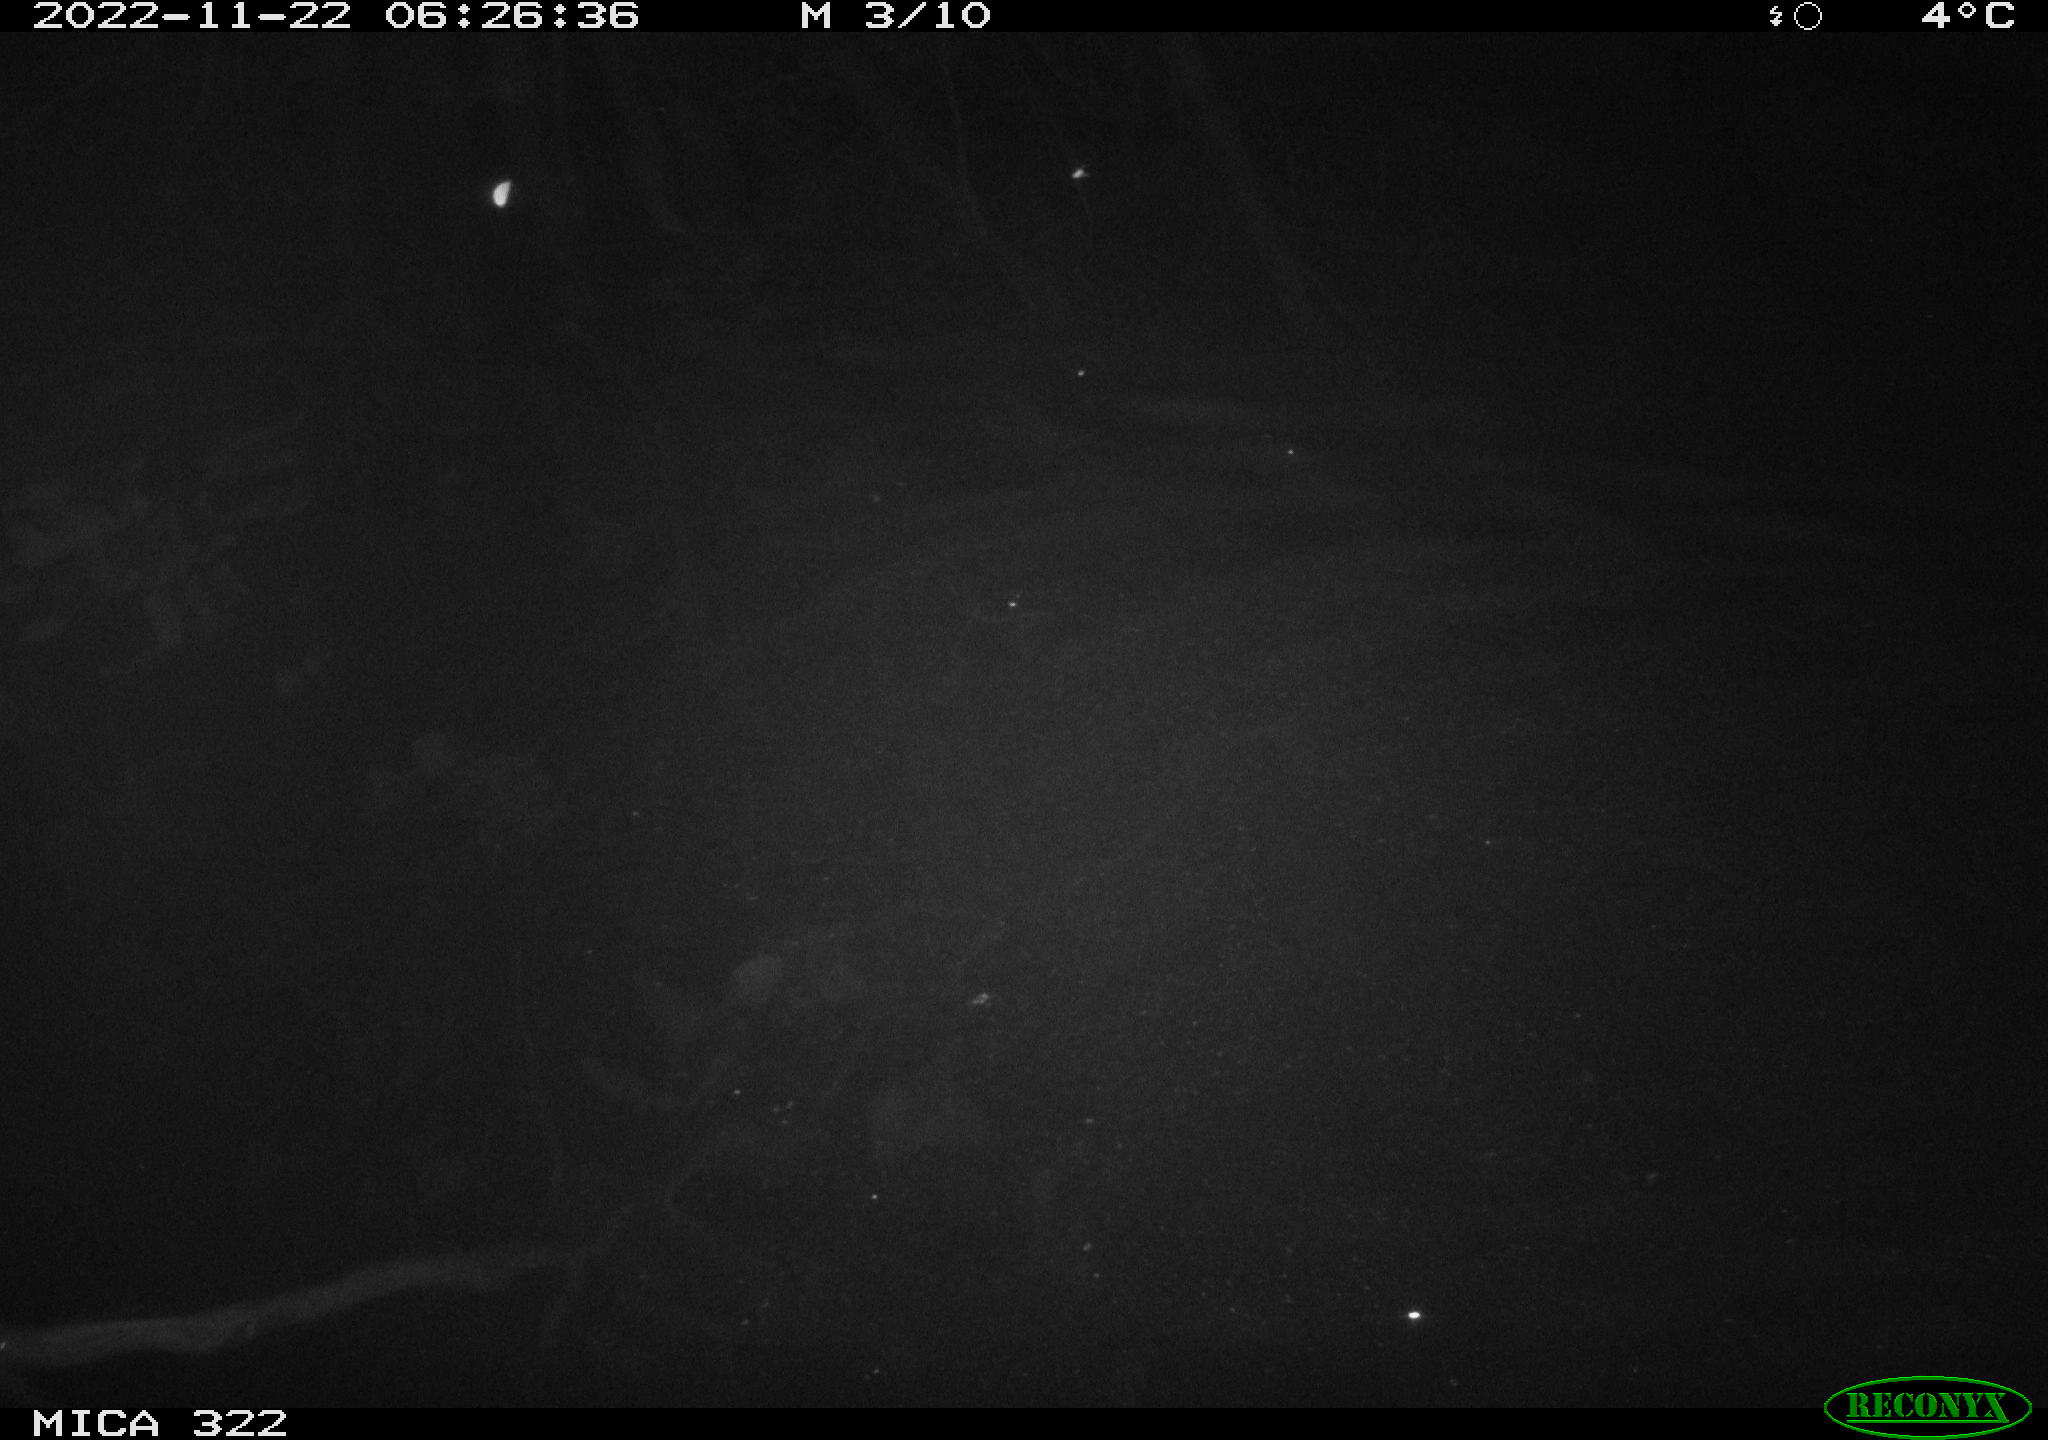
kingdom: Animalia
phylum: Chordata
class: Mammalia
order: Rodentia
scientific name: Rodentia
